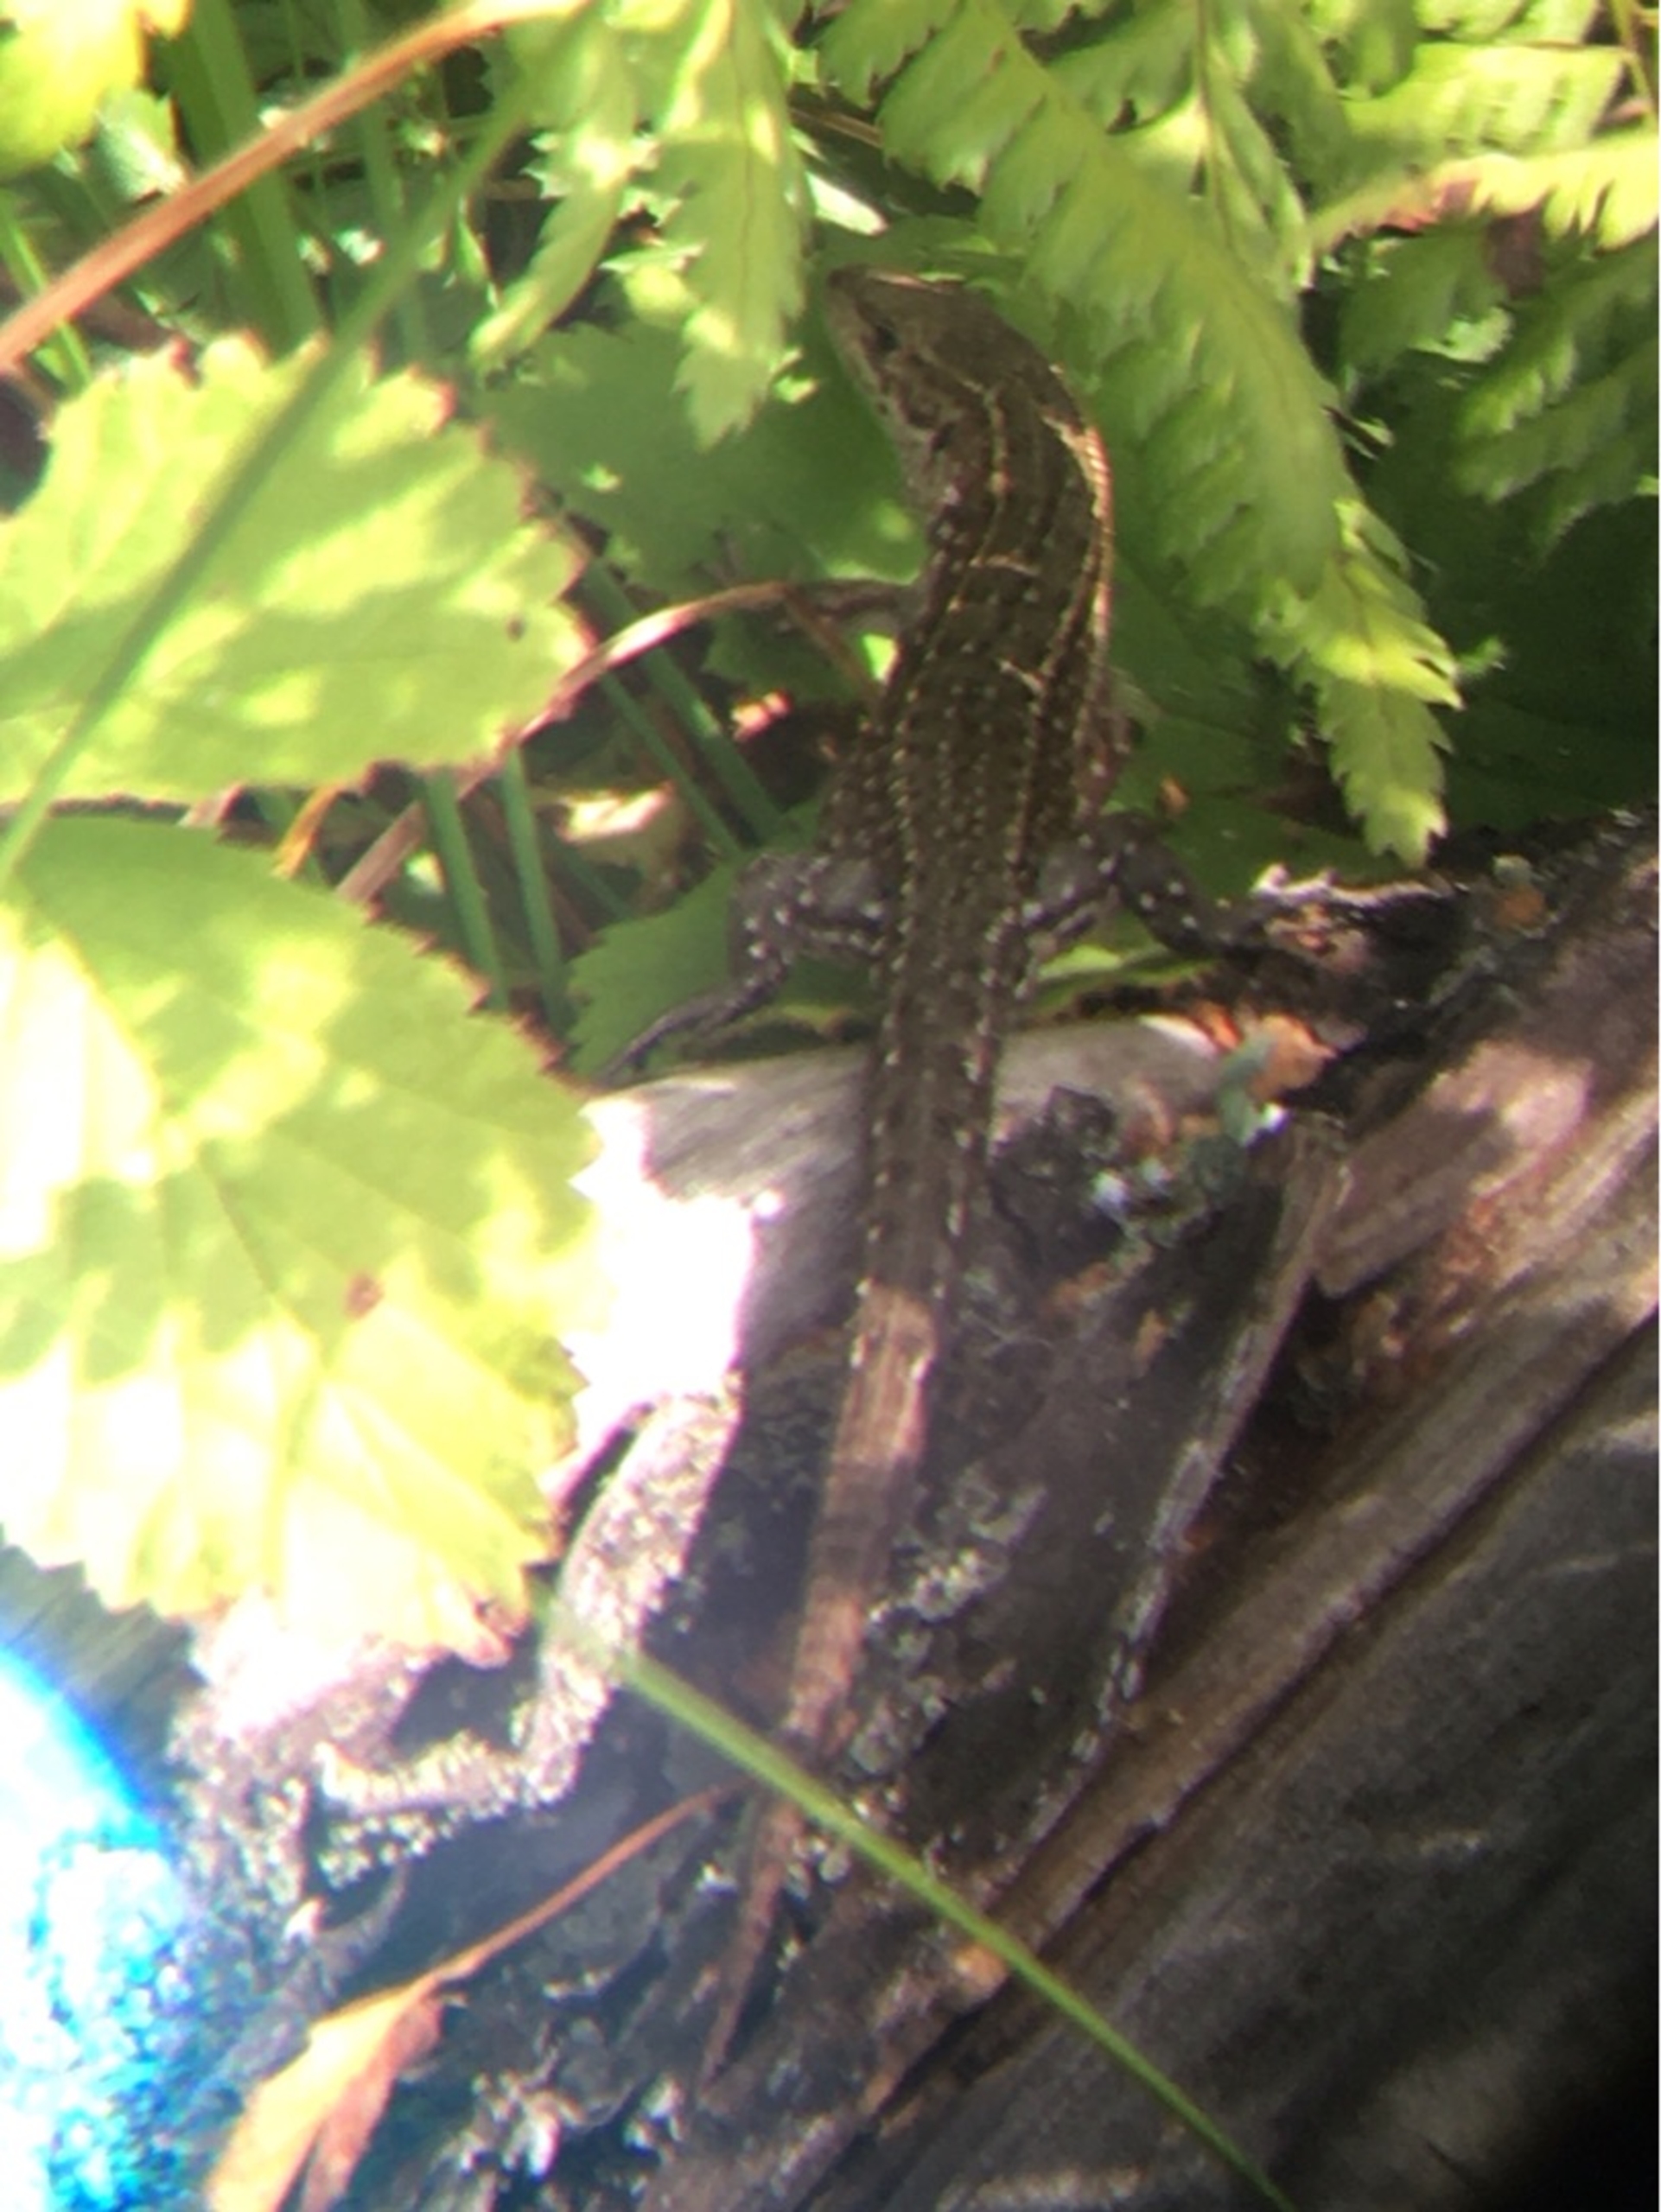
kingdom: Animalia
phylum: Chordata
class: Squamata
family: Lacertidae
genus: Zootoca
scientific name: Zootoca vivipara
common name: Skovfirben
